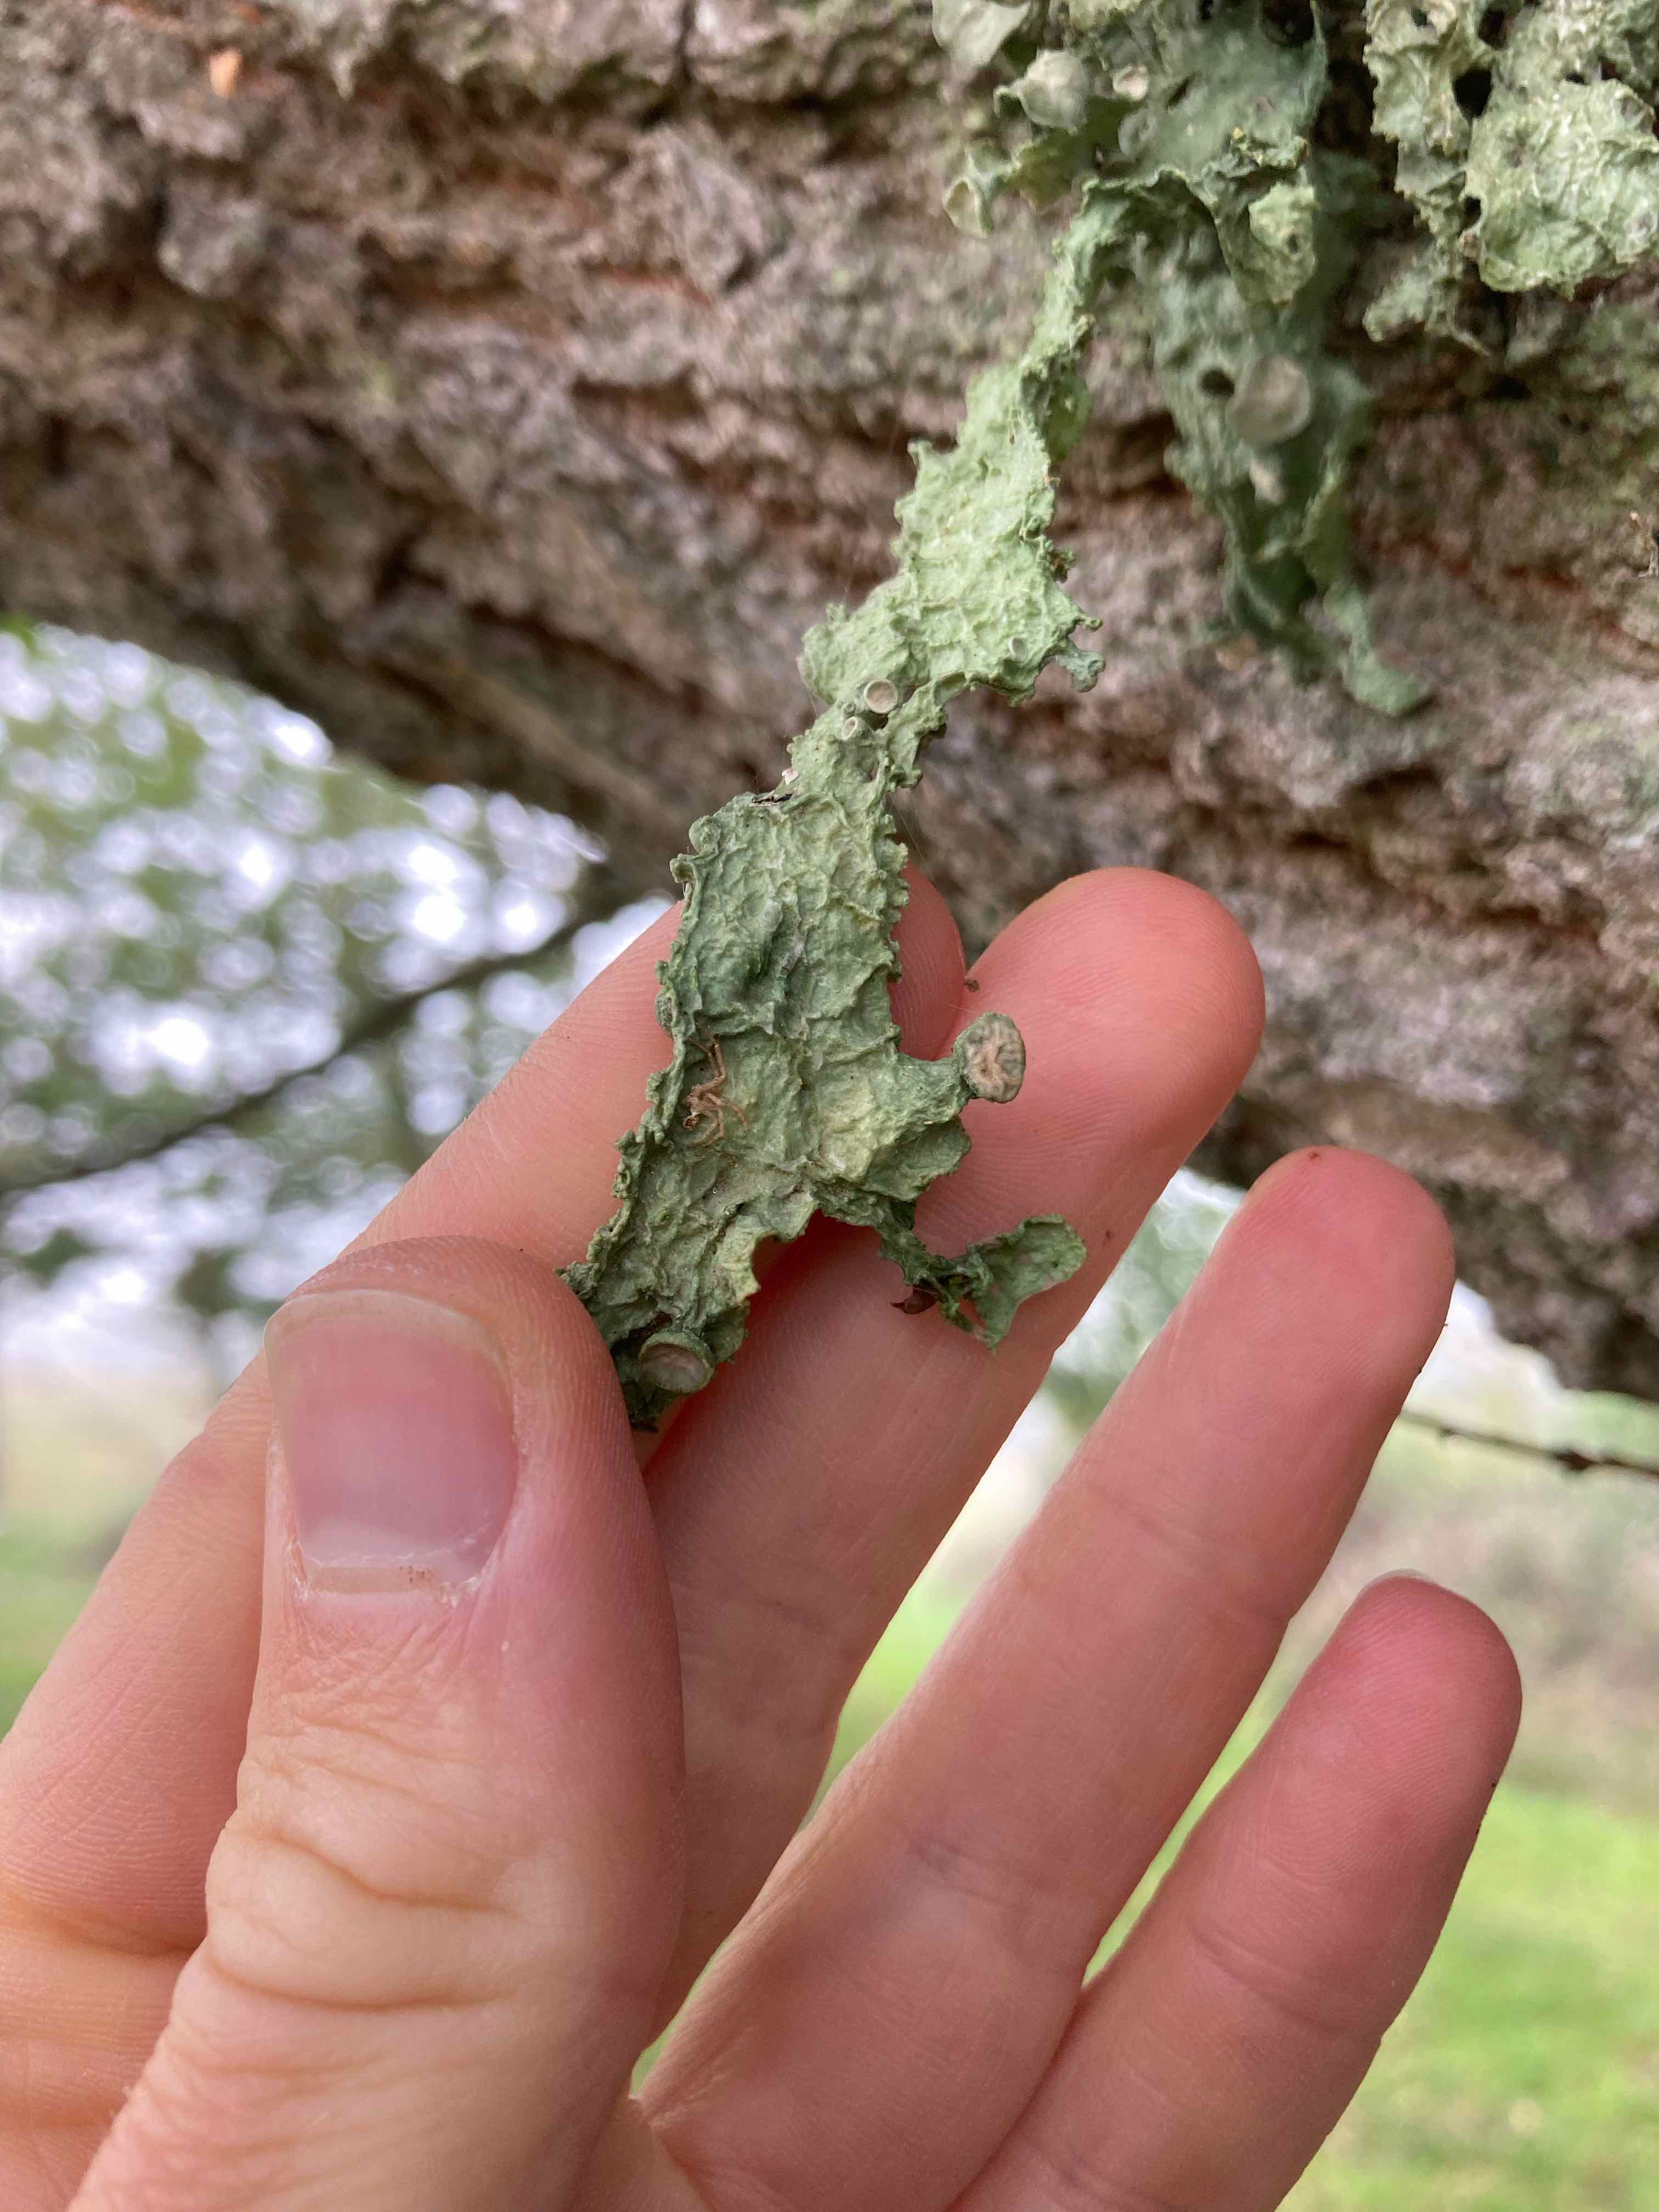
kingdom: Fungi
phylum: Ascomycota
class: Lecanoromycetes
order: Lecanorales
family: Ramalinaceae
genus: Ramalina
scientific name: Ramalina fraxinea
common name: stor grenlav
